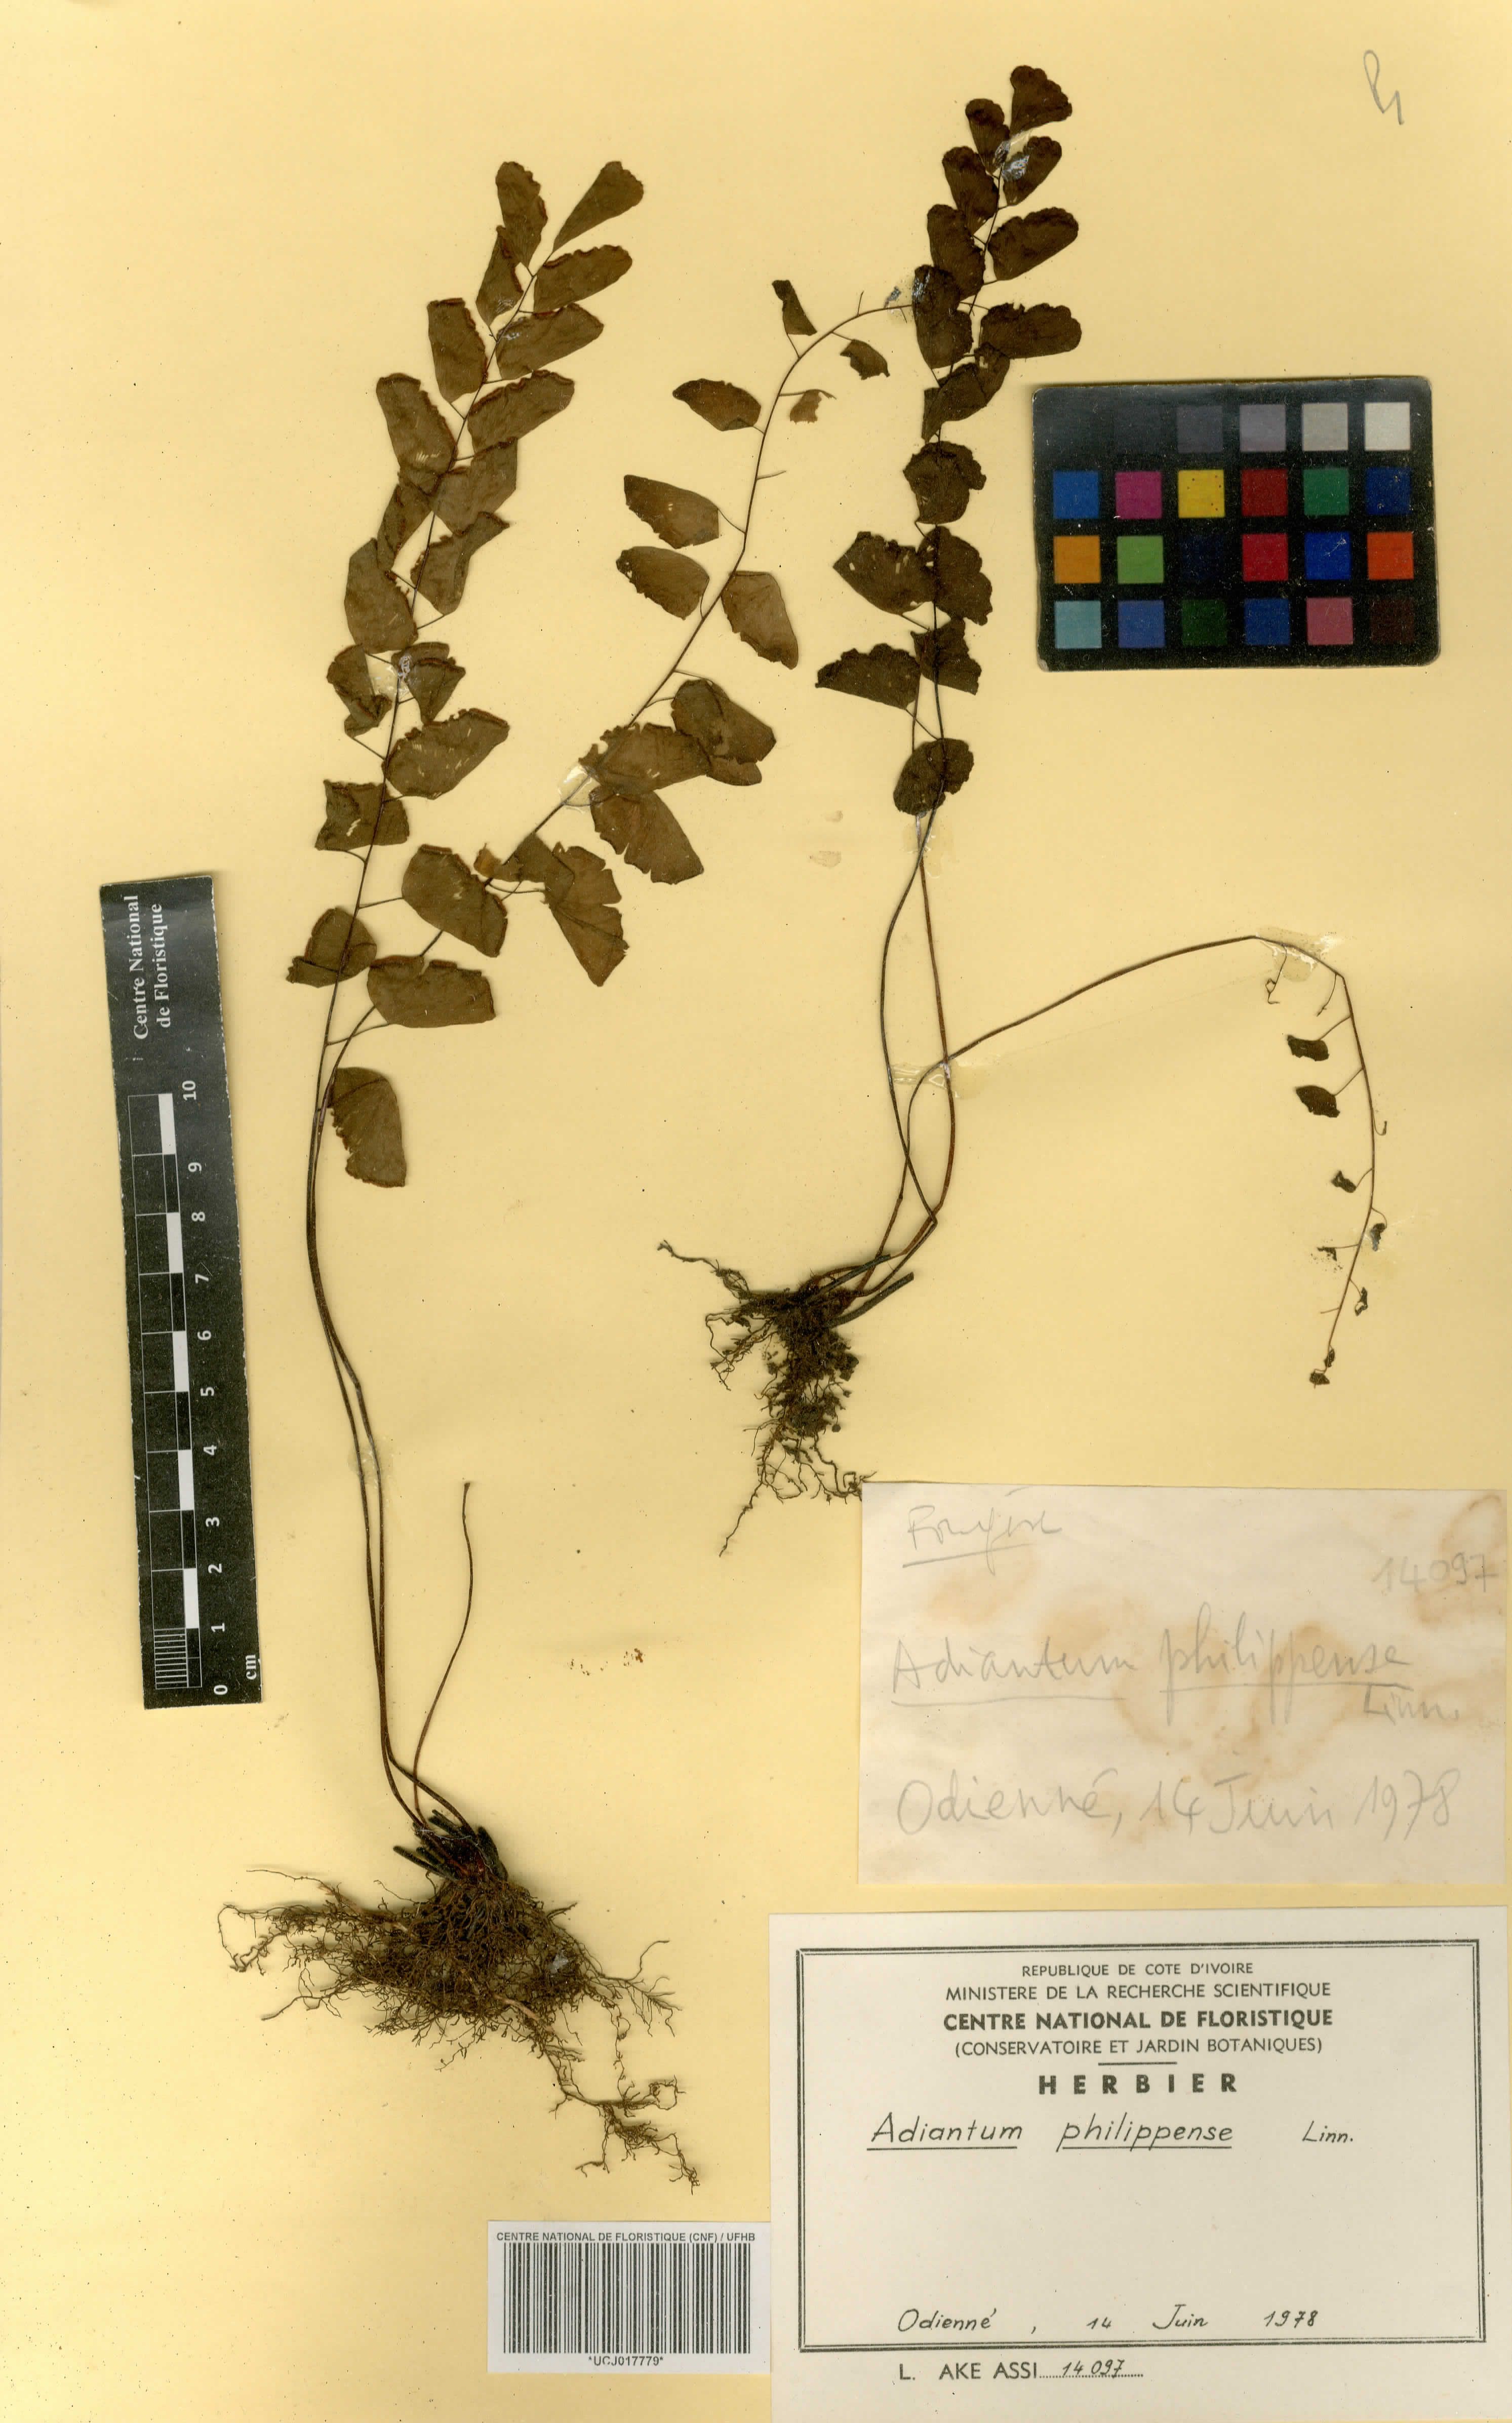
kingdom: Plantae
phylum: Tracheophyta
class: Polypodiopsida
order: Polypodiales
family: Pteridaceae
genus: Adiantum
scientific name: Adiantum philippense
